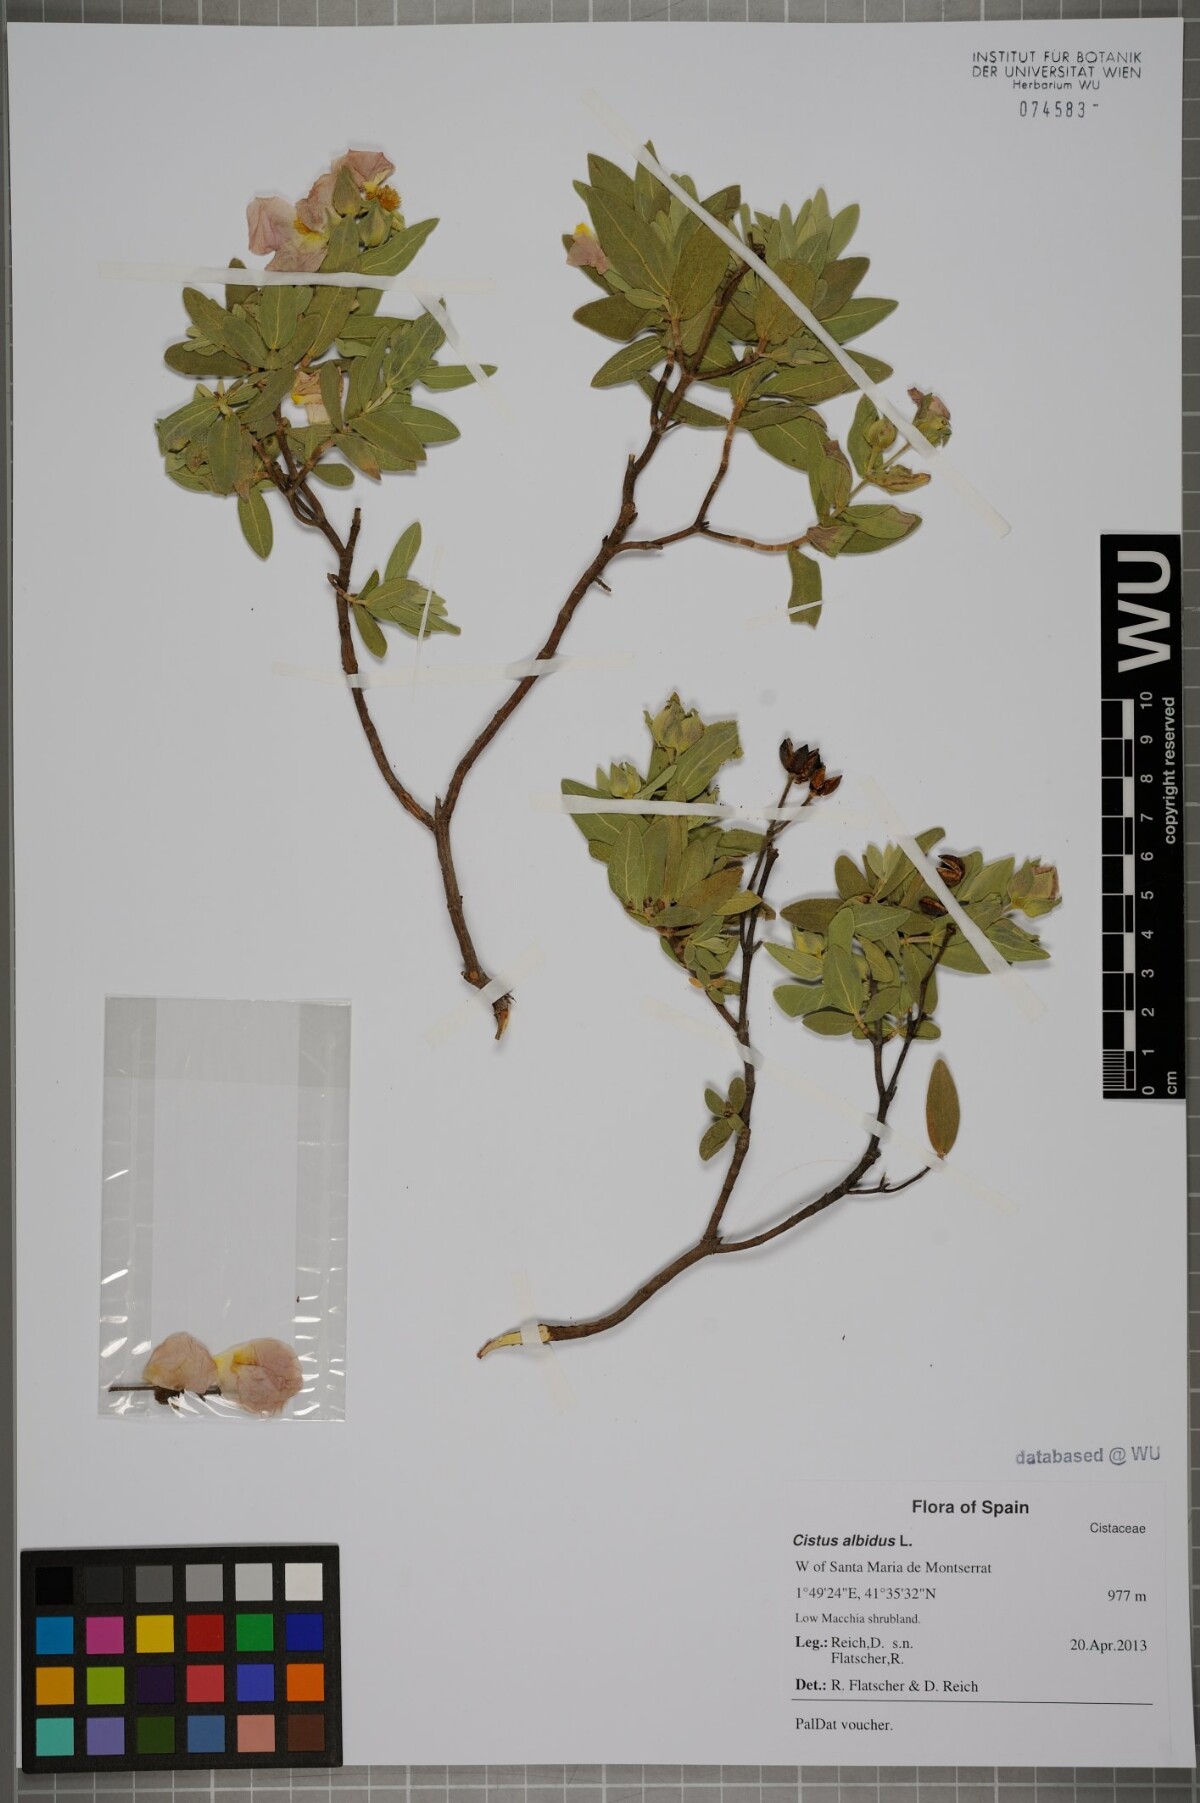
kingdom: Plantae
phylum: Tracheophyta
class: Magnoliopsida
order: Malvales
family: Cistaceae
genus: Cistus
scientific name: Cistus albidus
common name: White-leaf rock-rose
